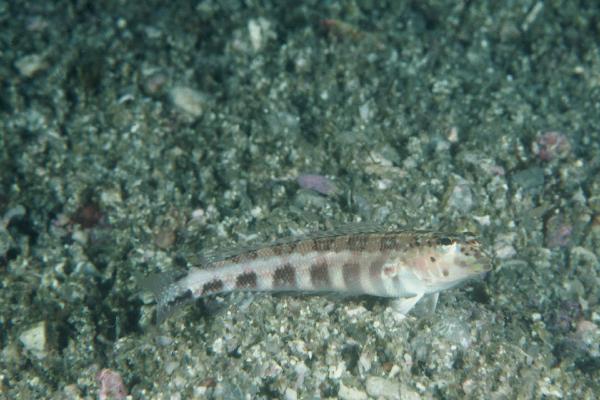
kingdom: Animalia
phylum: Chordata
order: Perciformes
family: Pinguipedidae
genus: Parapercis
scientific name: Parapercis maculata
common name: Harlequin sandperch
